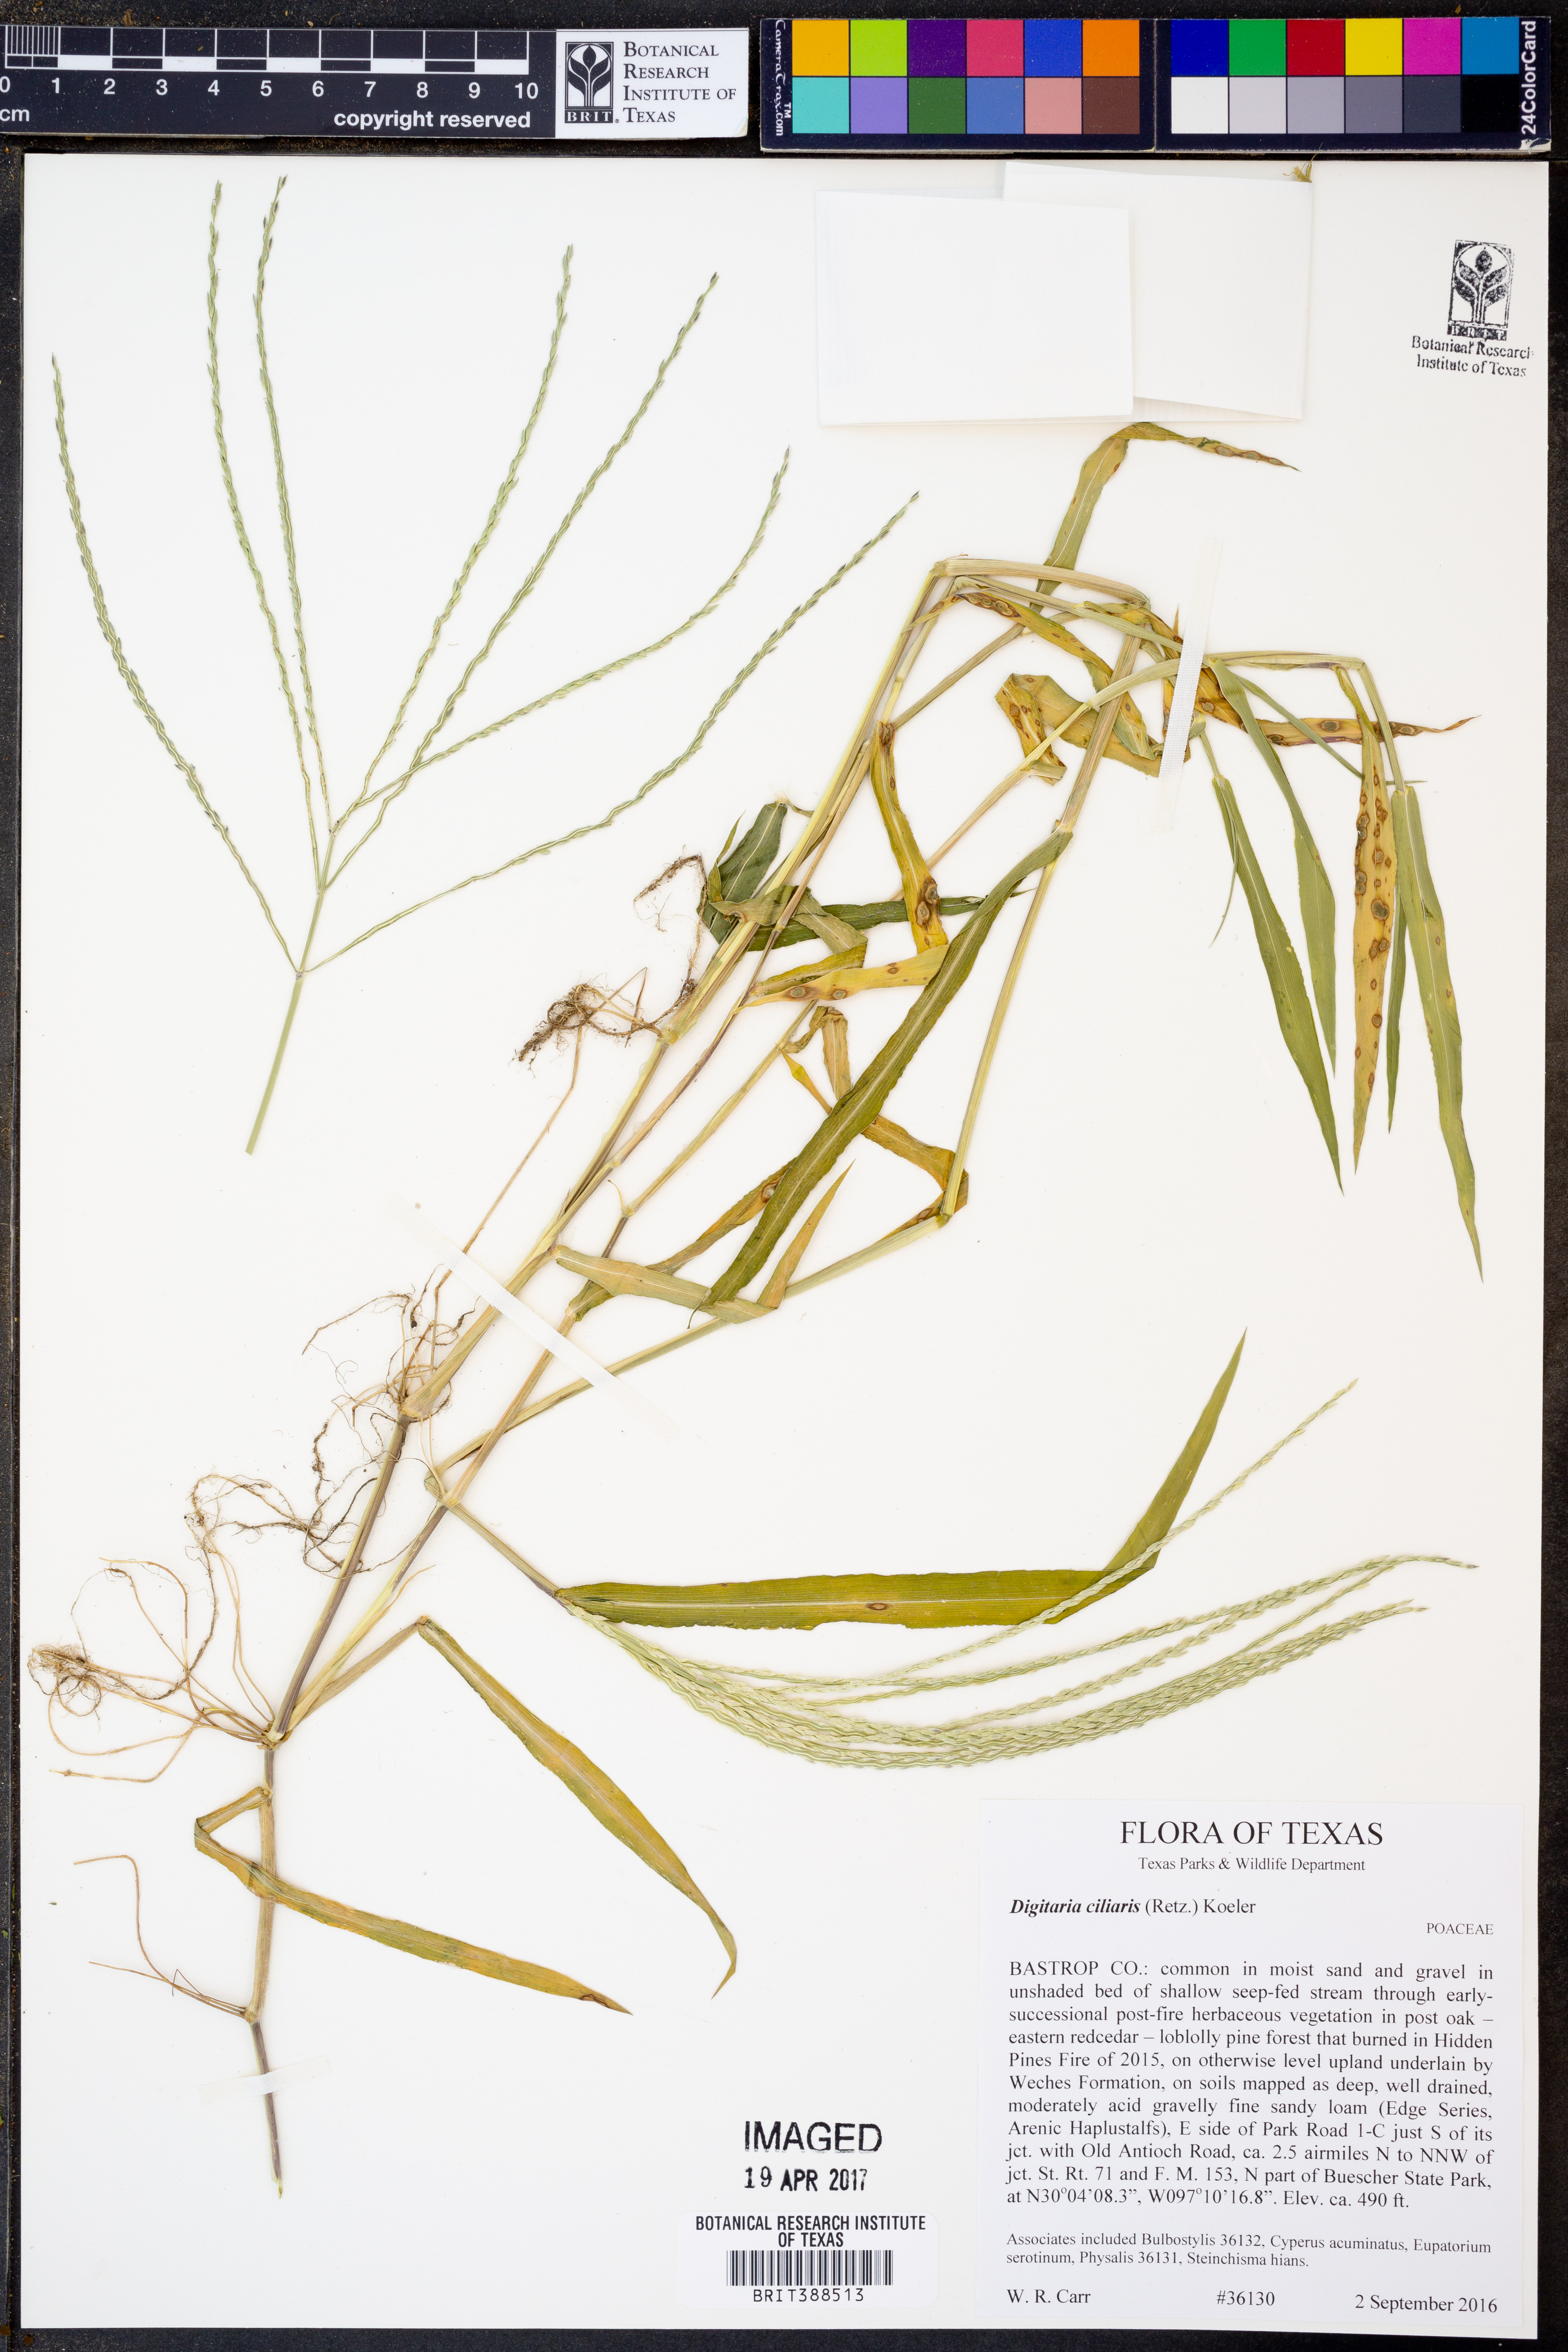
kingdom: Plantae
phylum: Tracheophyta
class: Liliopsida
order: Poales
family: Poaceae
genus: Digitaria
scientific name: Digitaria ciliaris
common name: Tropical finger-grass
